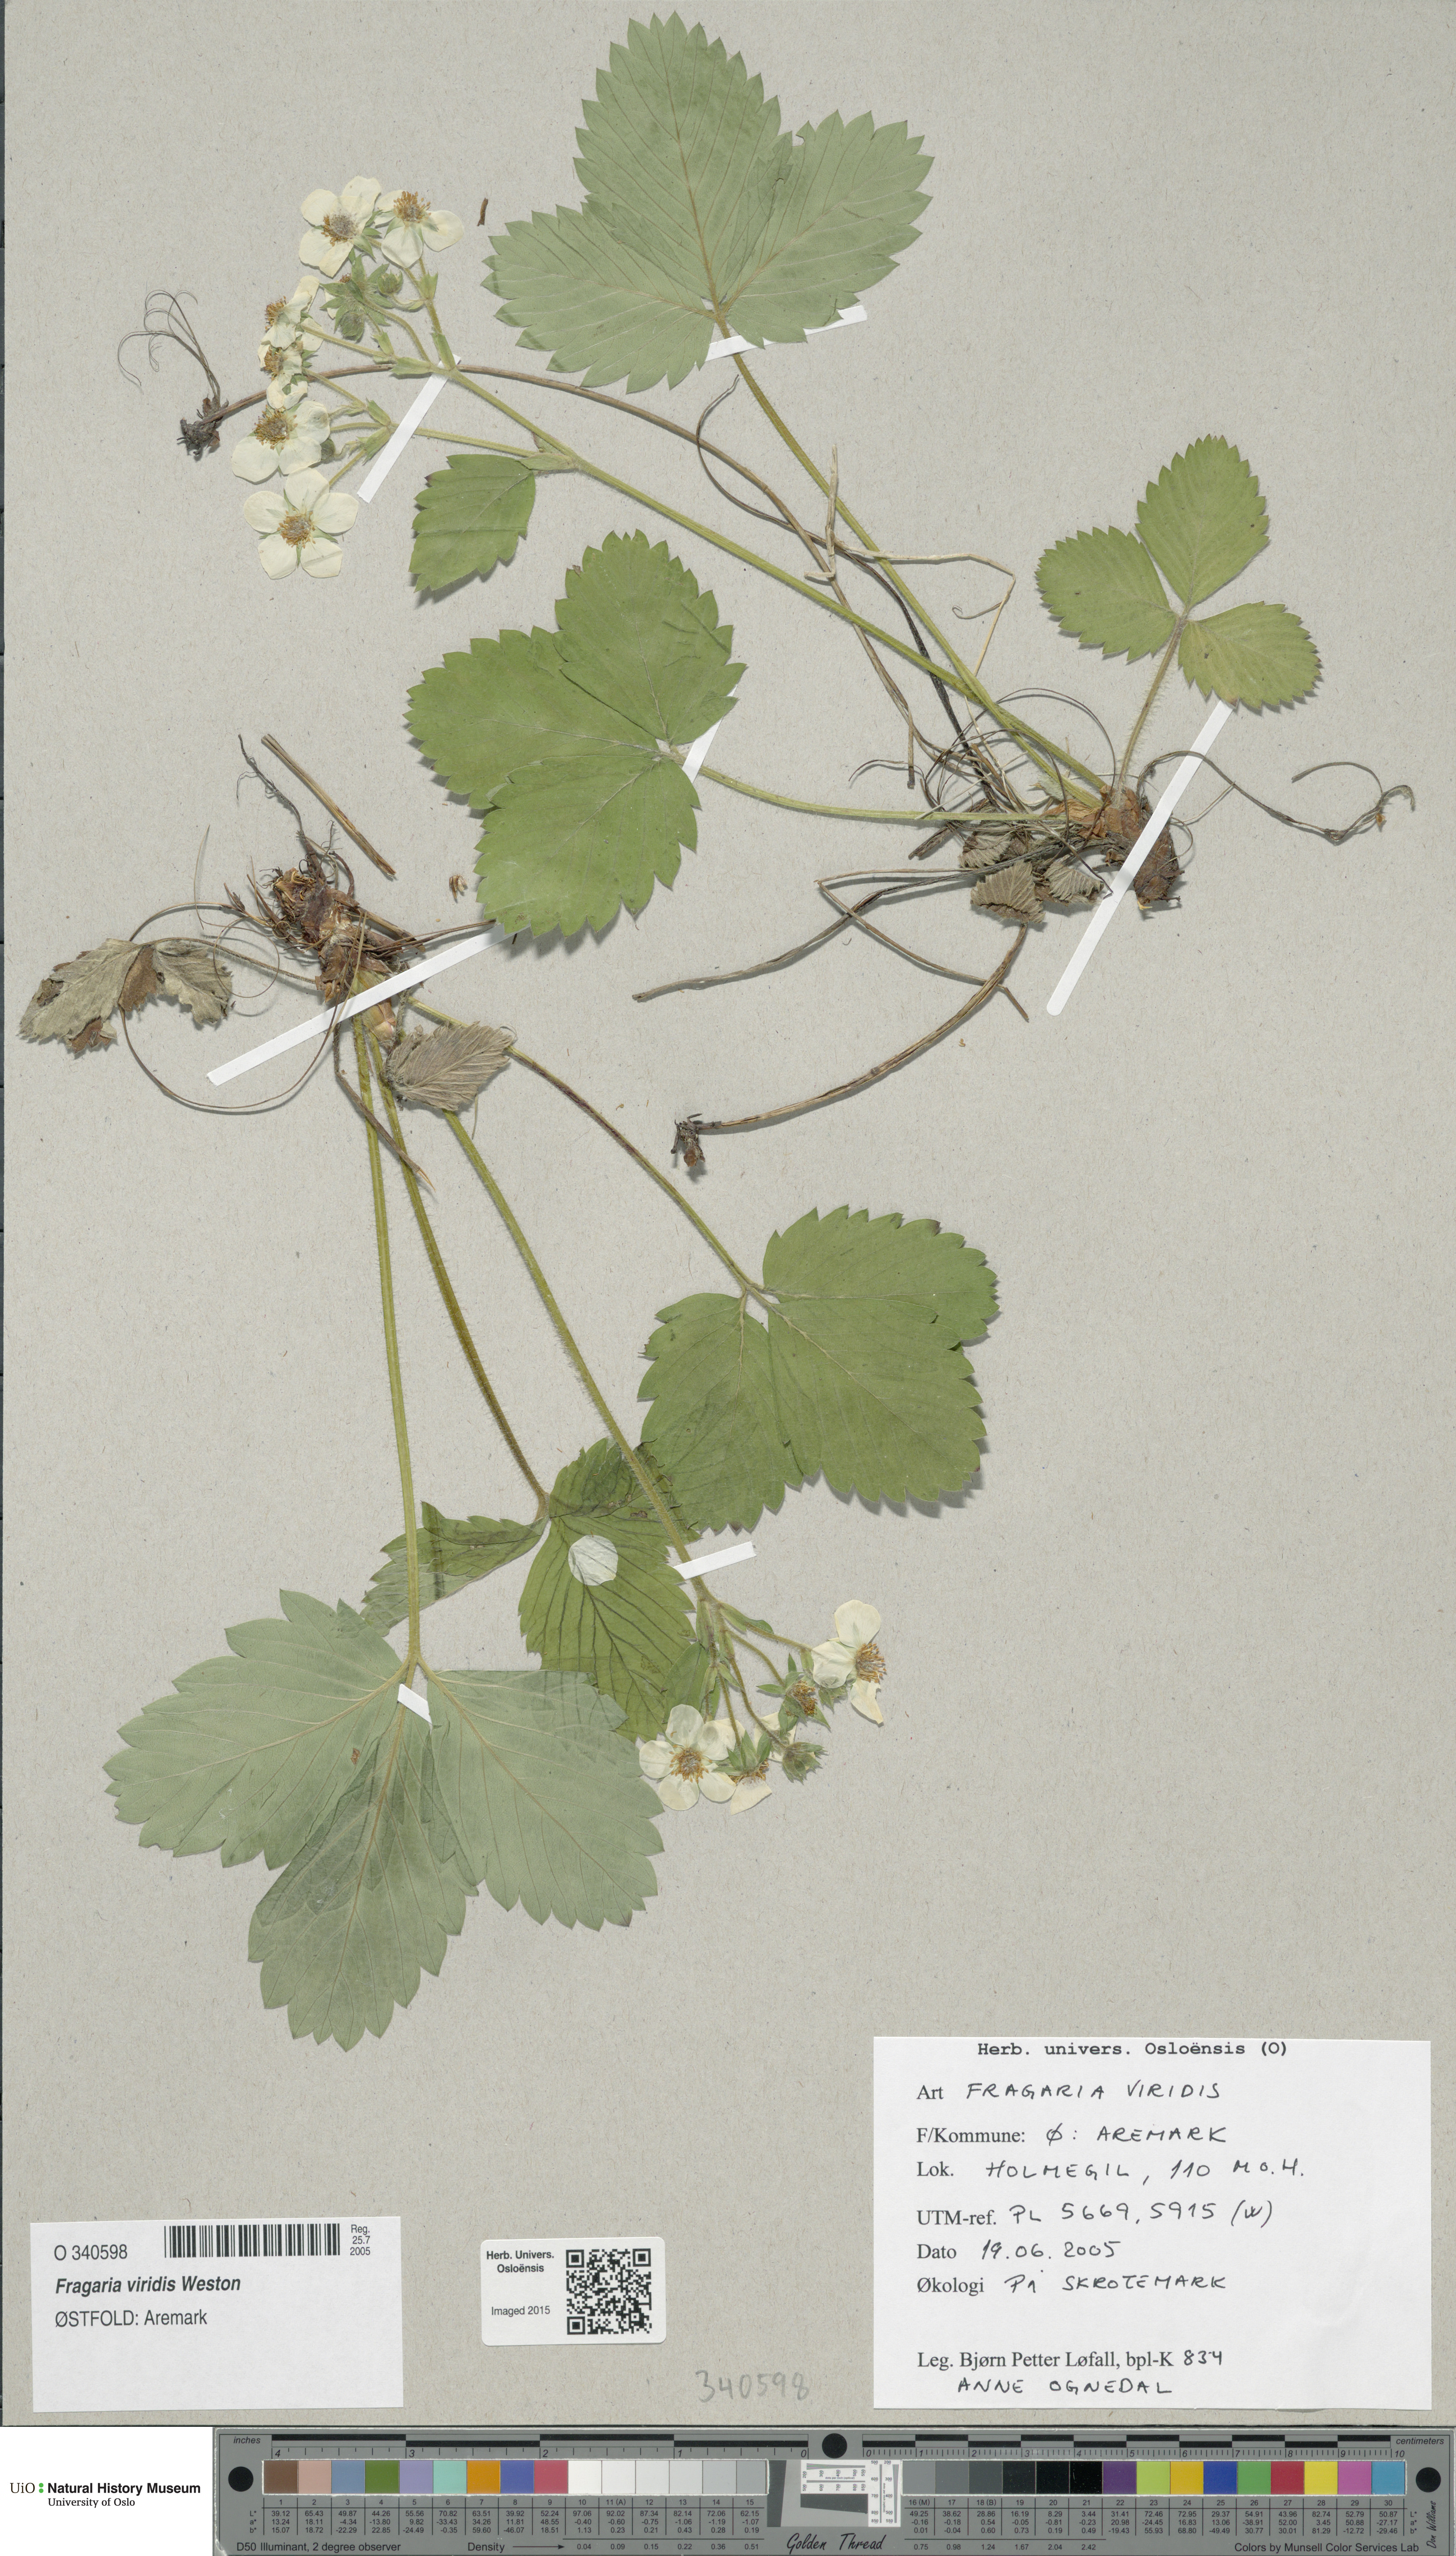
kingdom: Plantae
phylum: Tracheophyta
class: Magnoliopsida
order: Rosales
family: Rosaceae
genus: Fragaria
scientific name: Fragaria moschata
